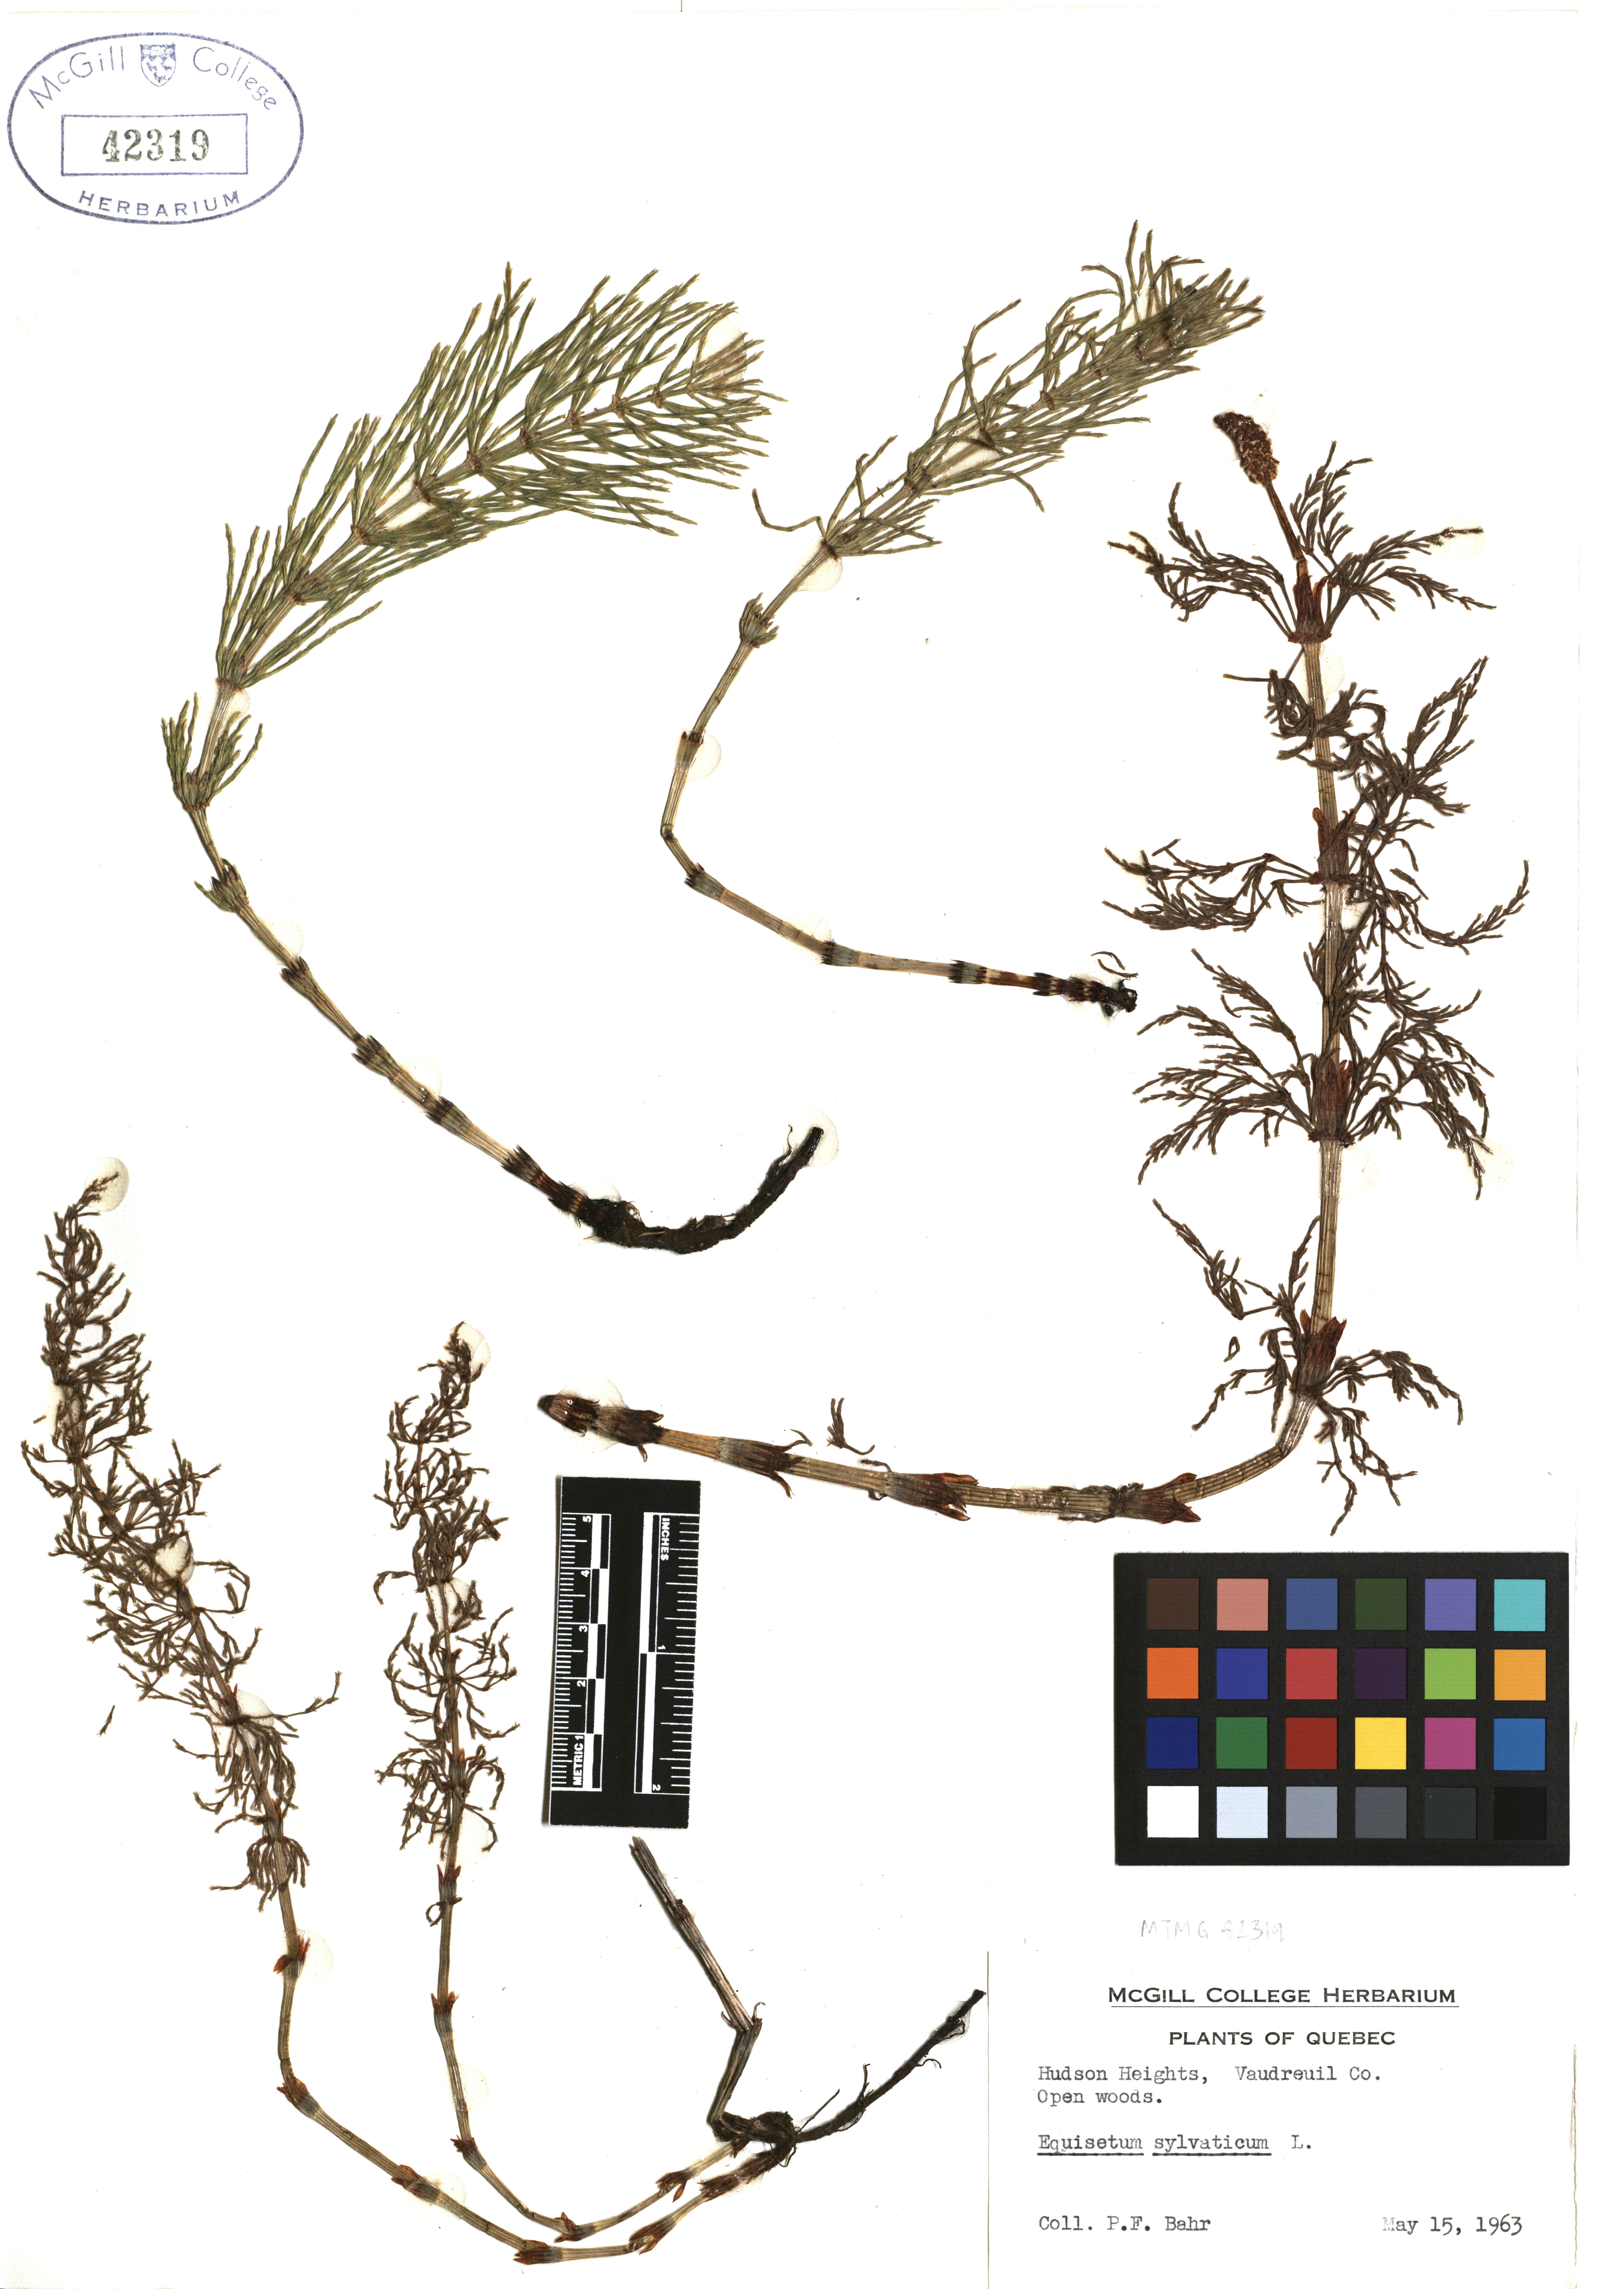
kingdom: Plantae
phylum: Tracheophyta
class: Polypodiopsida
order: Equisetales
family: Equisetaceae
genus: Equisetum
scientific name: Equisetum sylvaticum
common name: Wood horsetail
